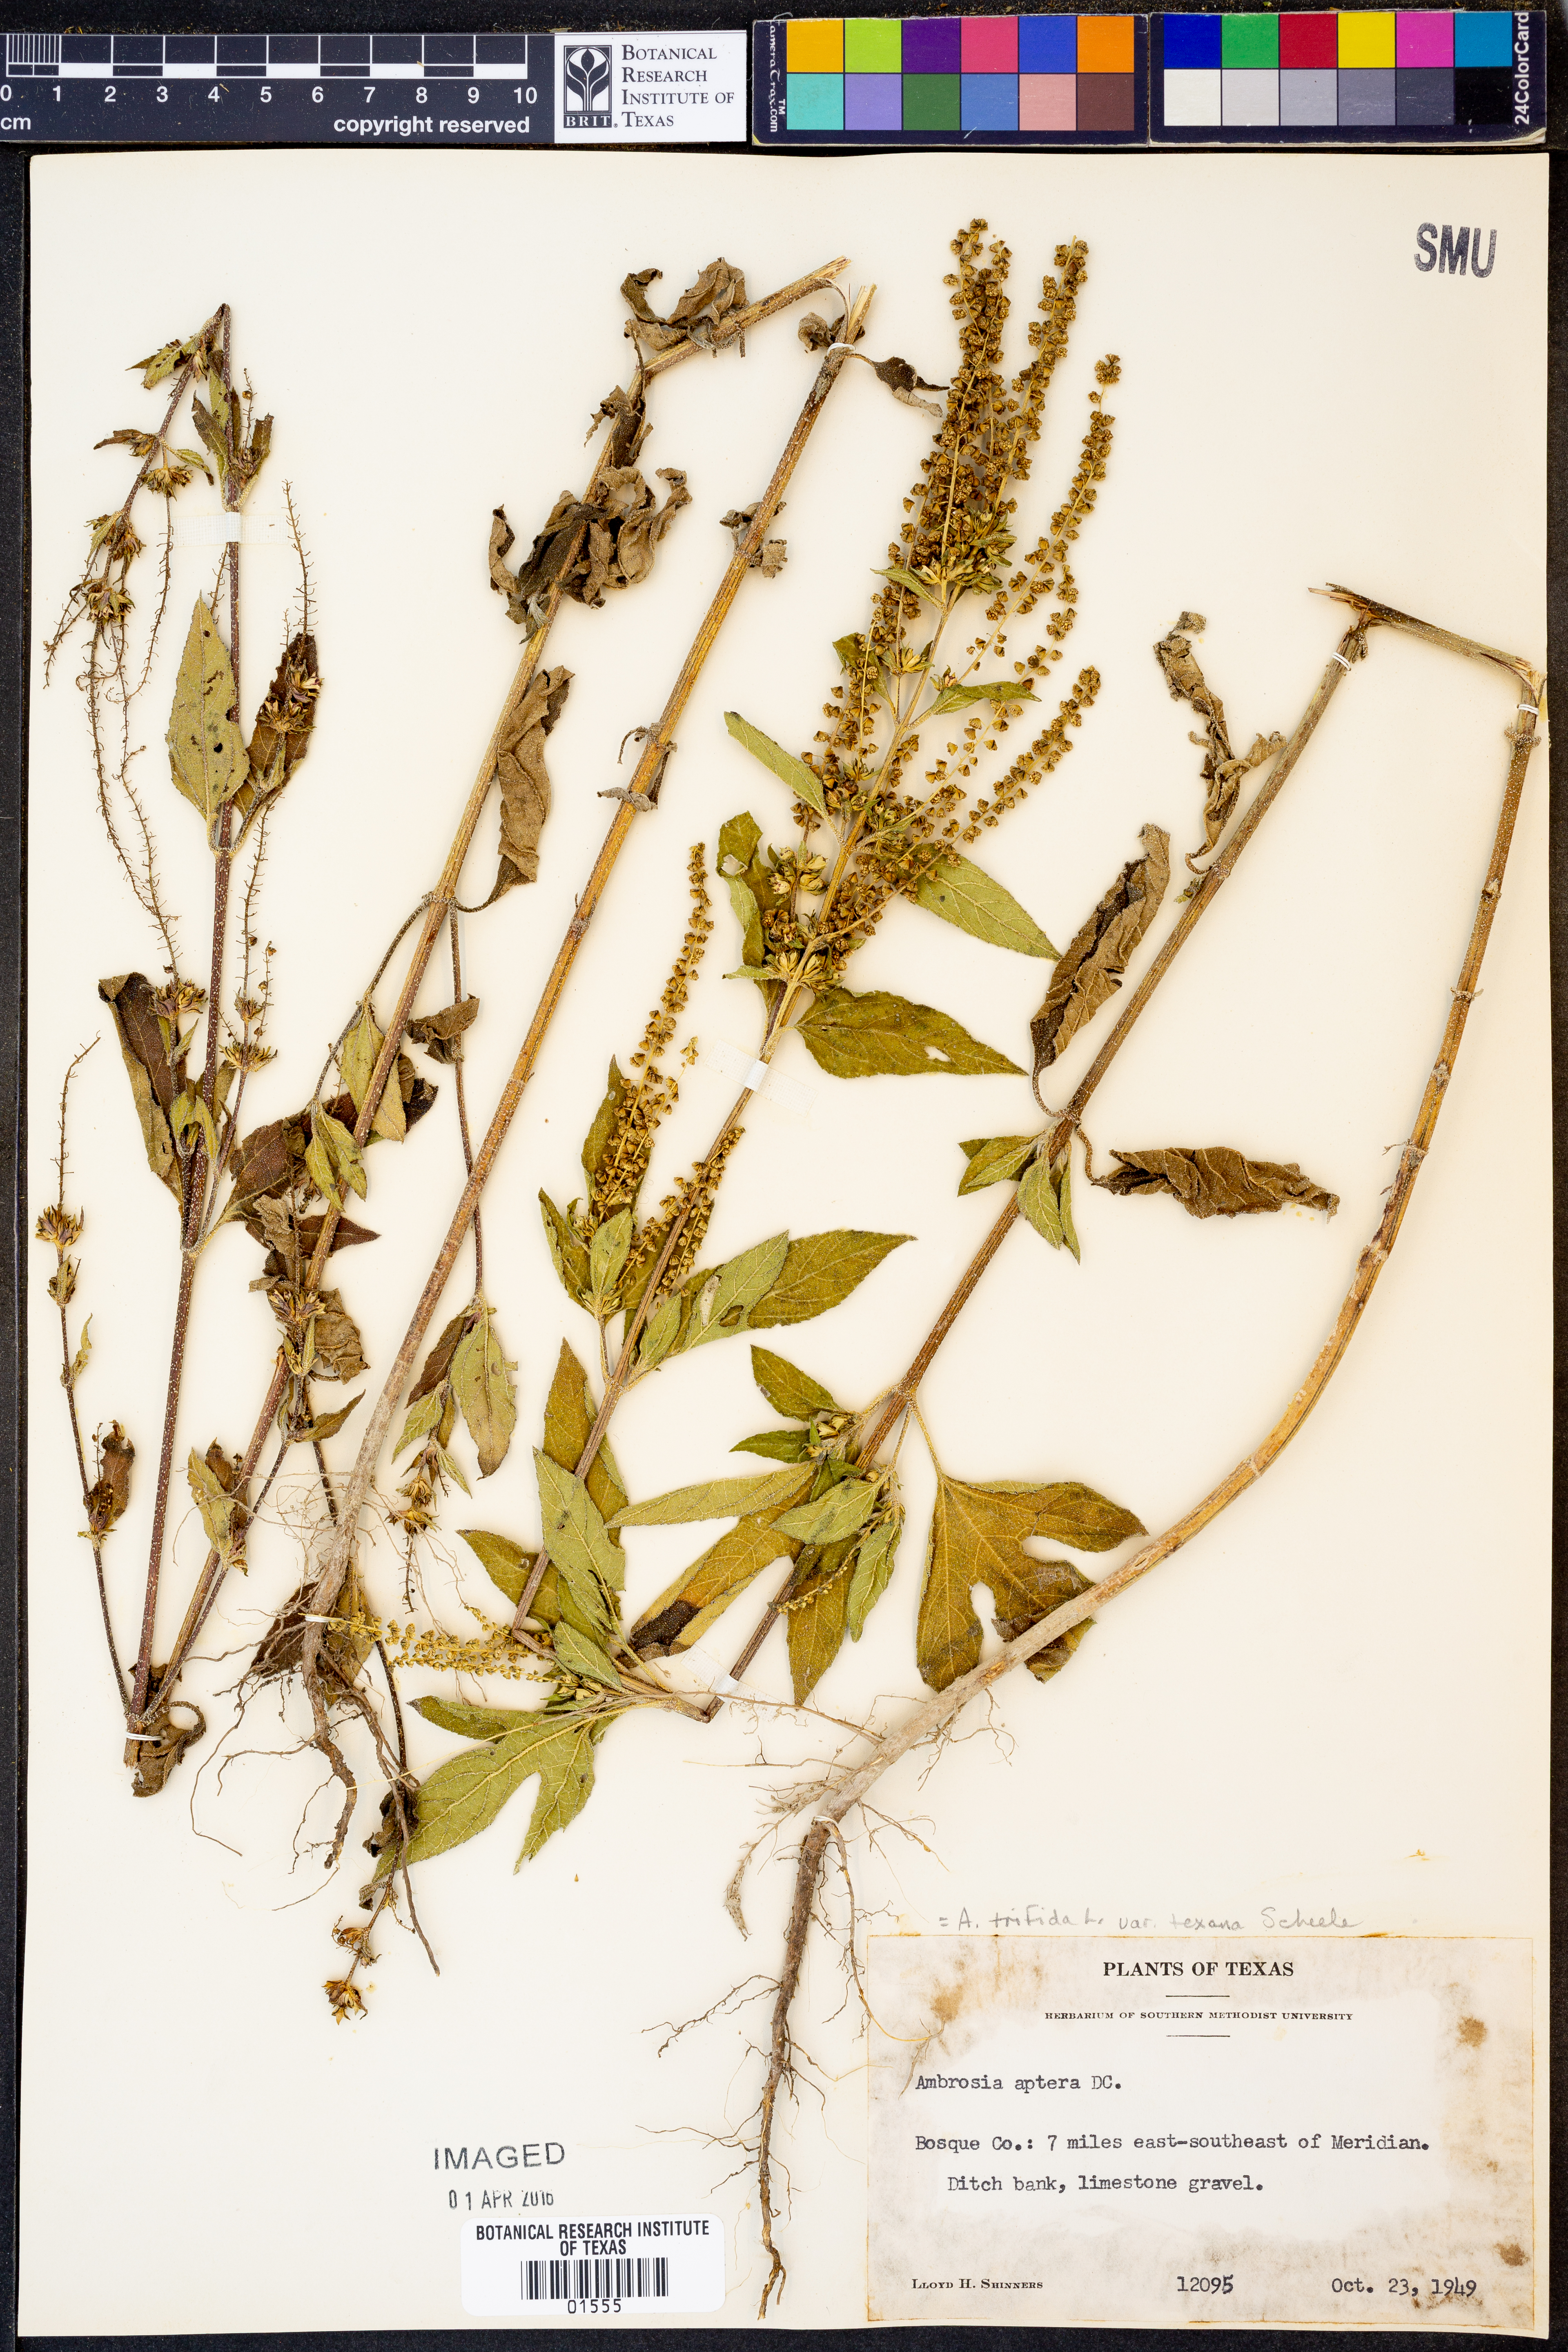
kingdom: Plantae
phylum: Tracheophyta
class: Magnoliopsida
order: Asterales
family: Asteraceae
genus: Ambrosia
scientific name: Ambrosia trifida
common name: Giant ragweed
